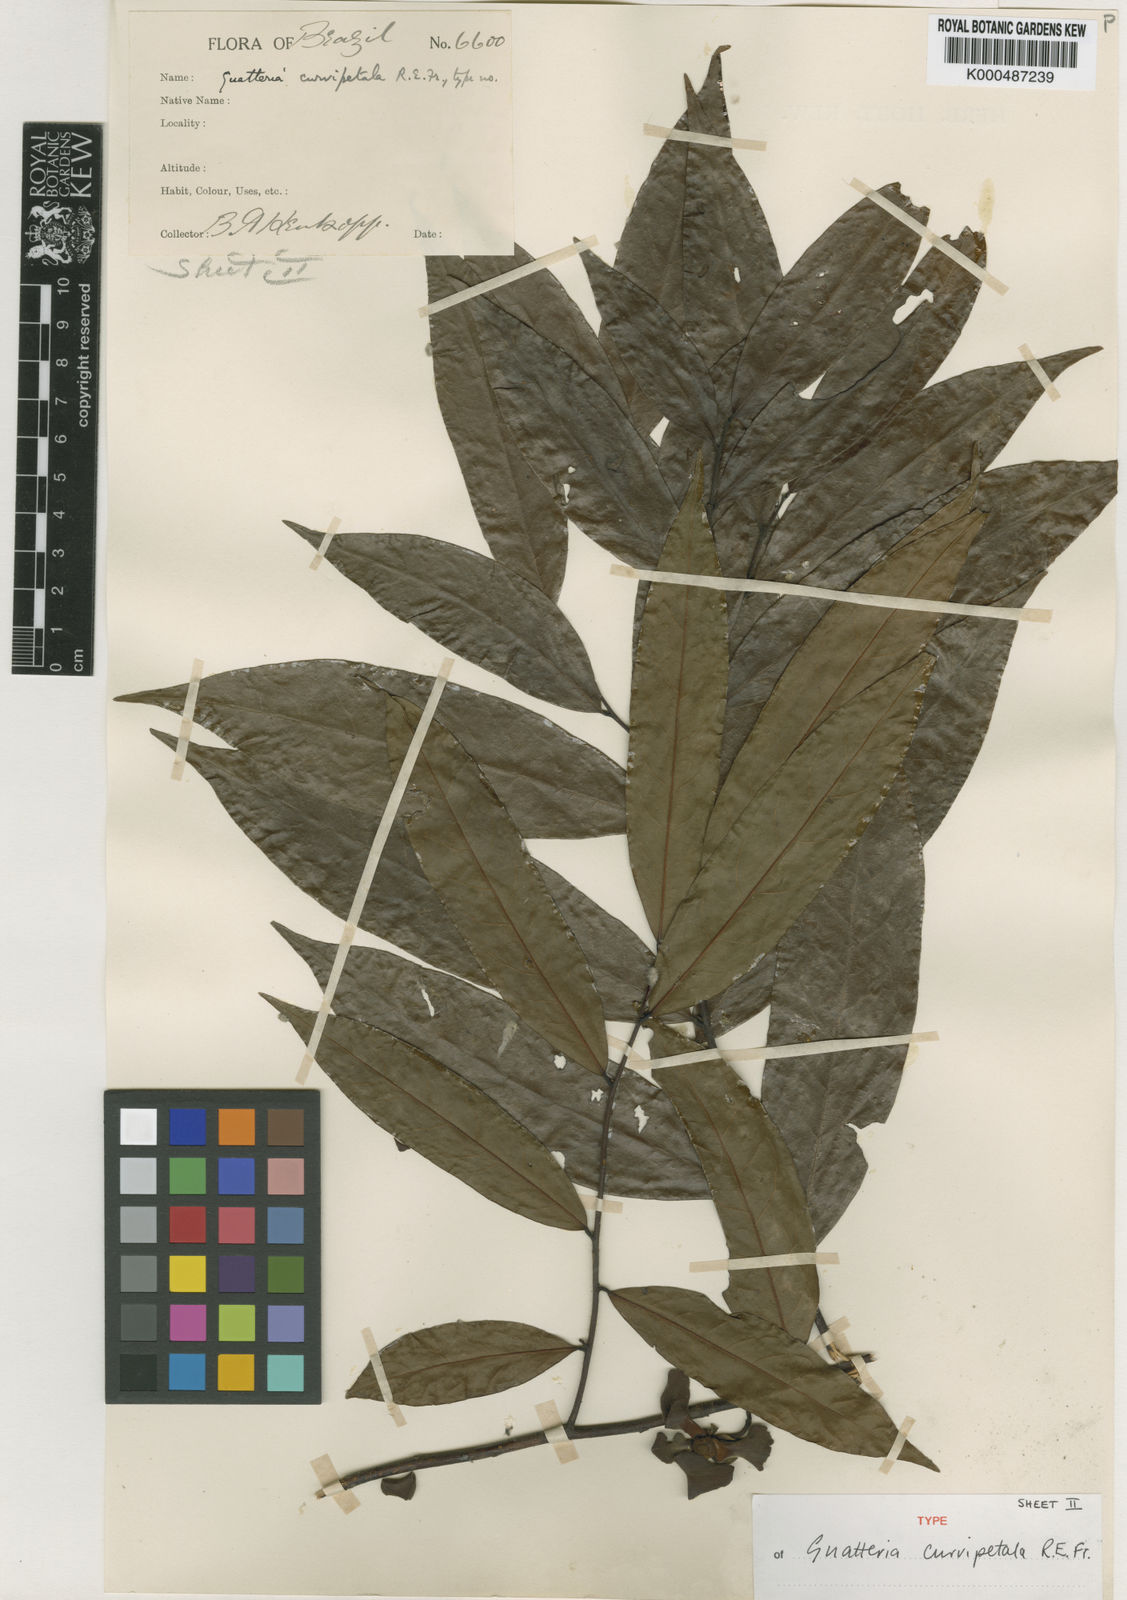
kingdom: Plantae
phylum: Tracheophyta
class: Magnoliopsida
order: Magnoliales
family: Annonaceae
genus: Guatteria
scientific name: Guatteria curvipetala
